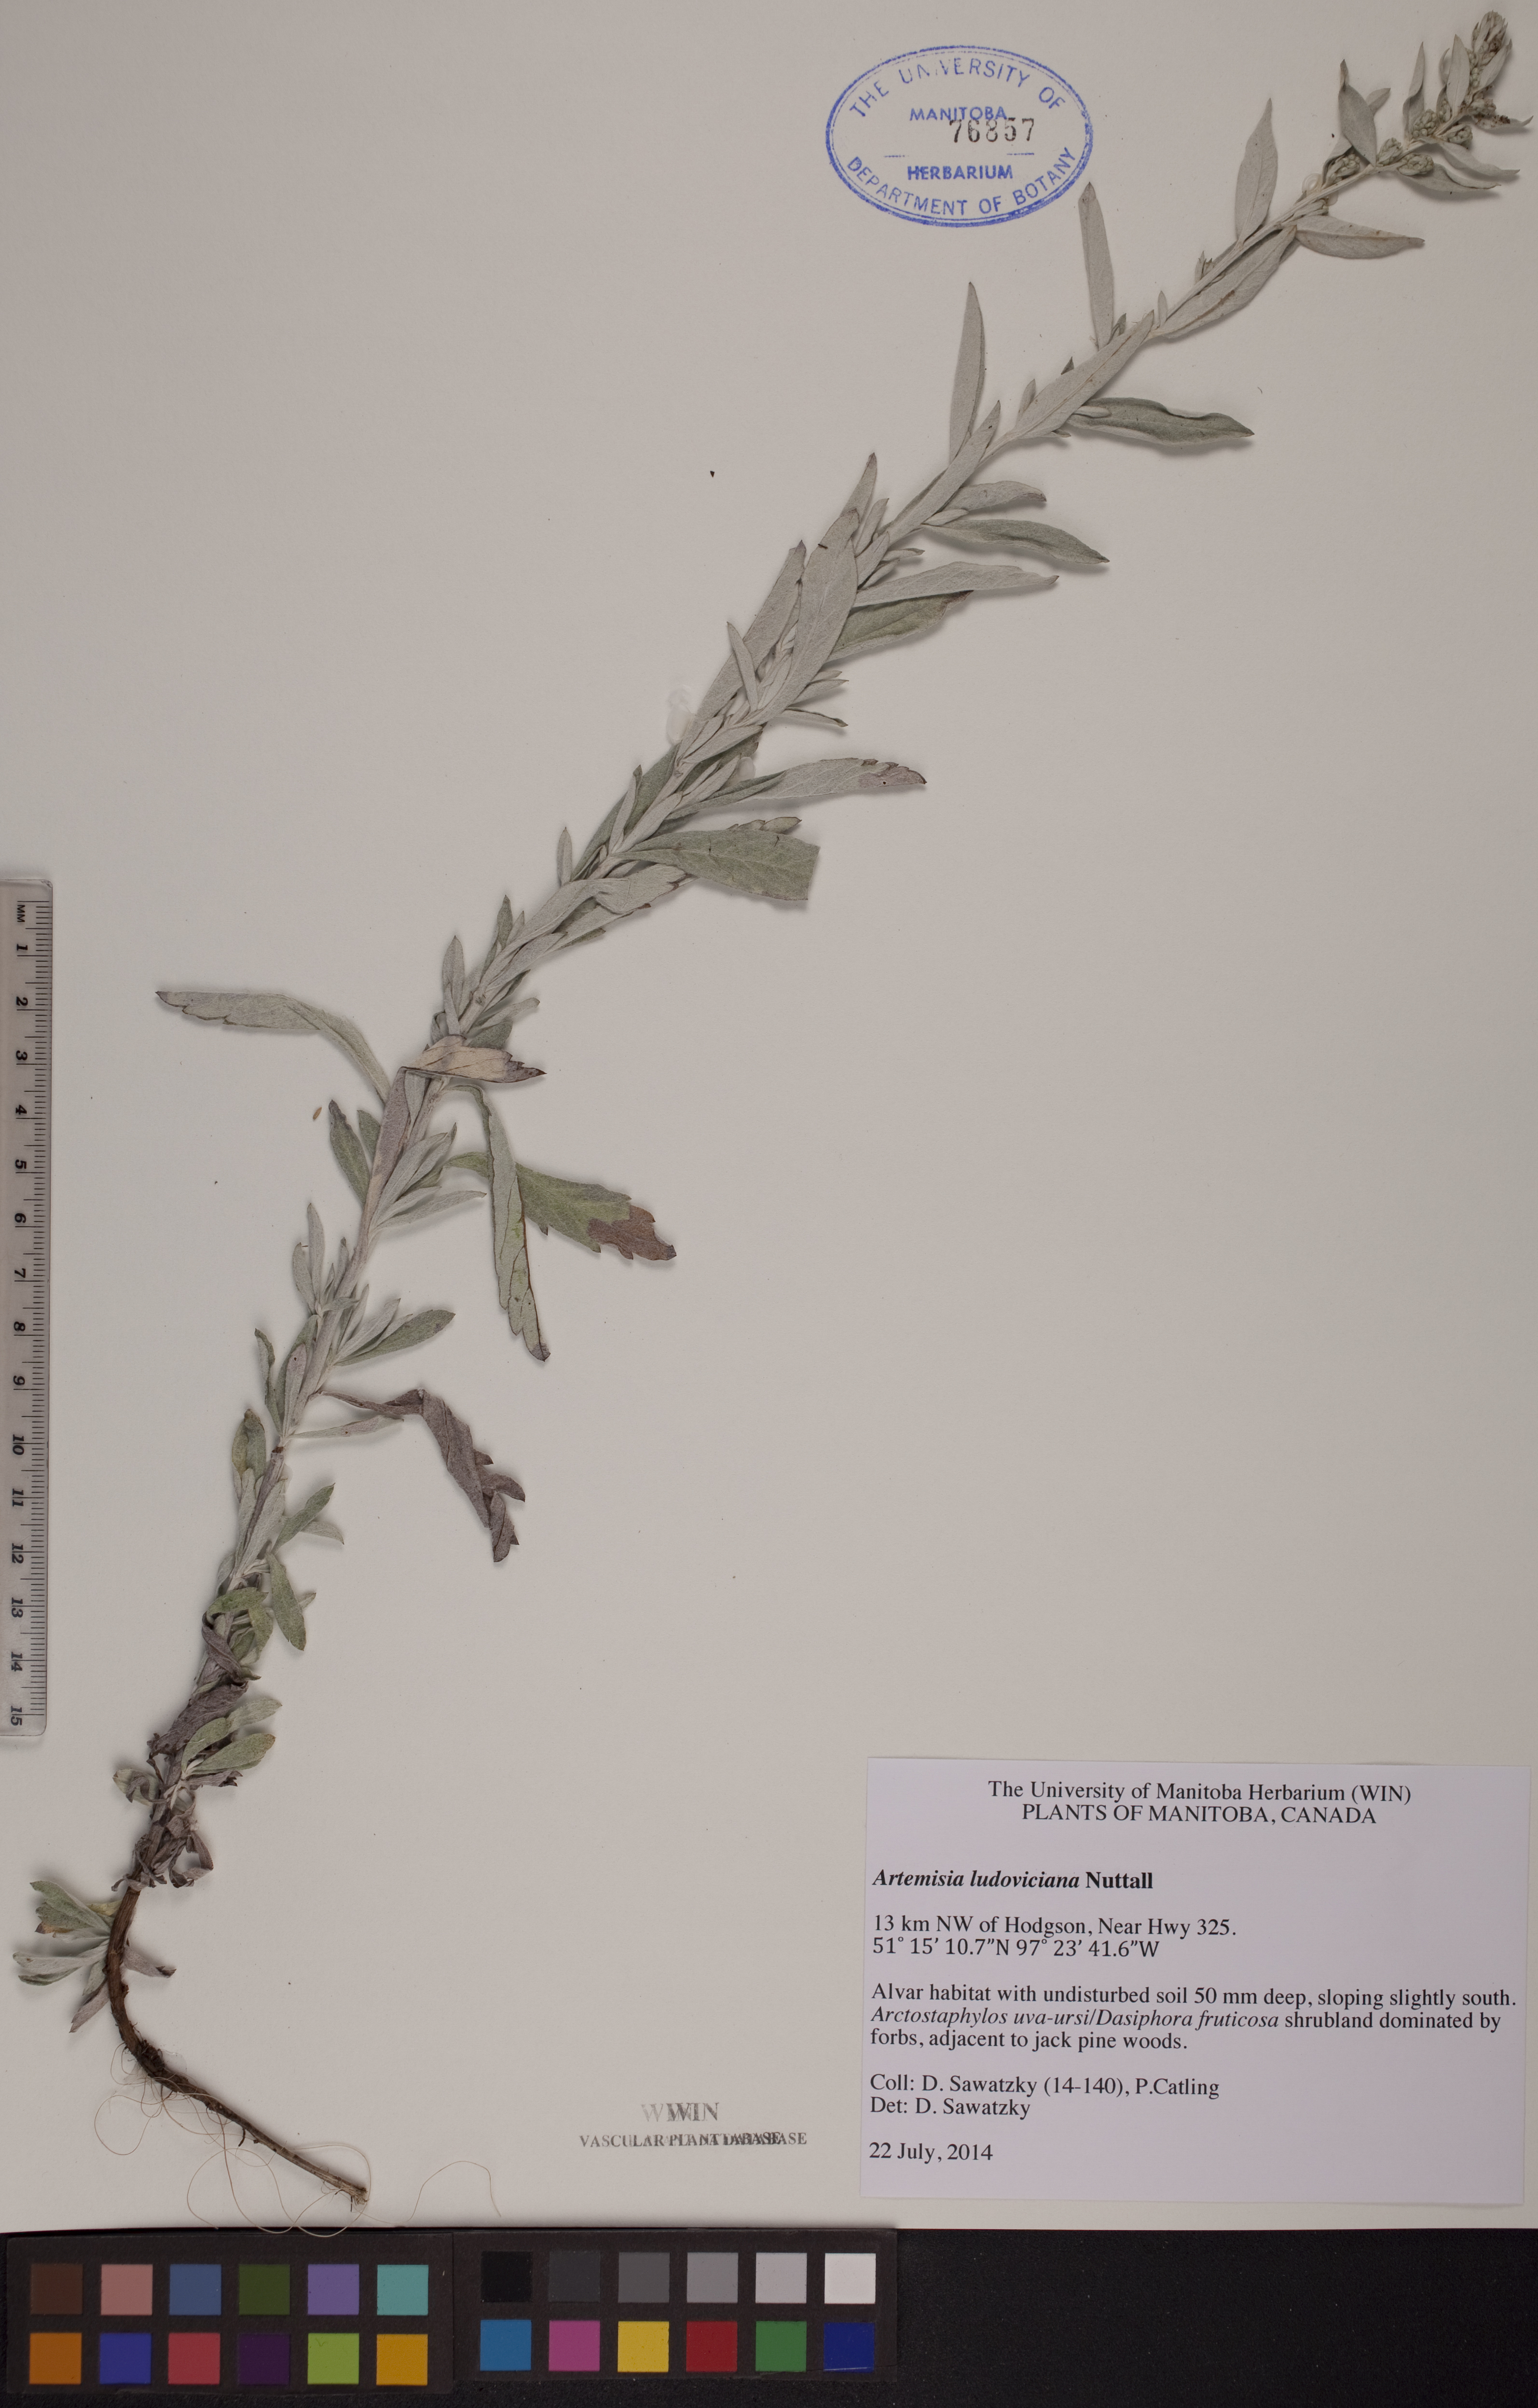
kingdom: Plantae
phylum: Tracheophyta
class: Magnoliopsida
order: Asterales
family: Asteraceae
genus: Artemisia
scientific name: Artemisia ludoviciana
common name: Western mugwort
